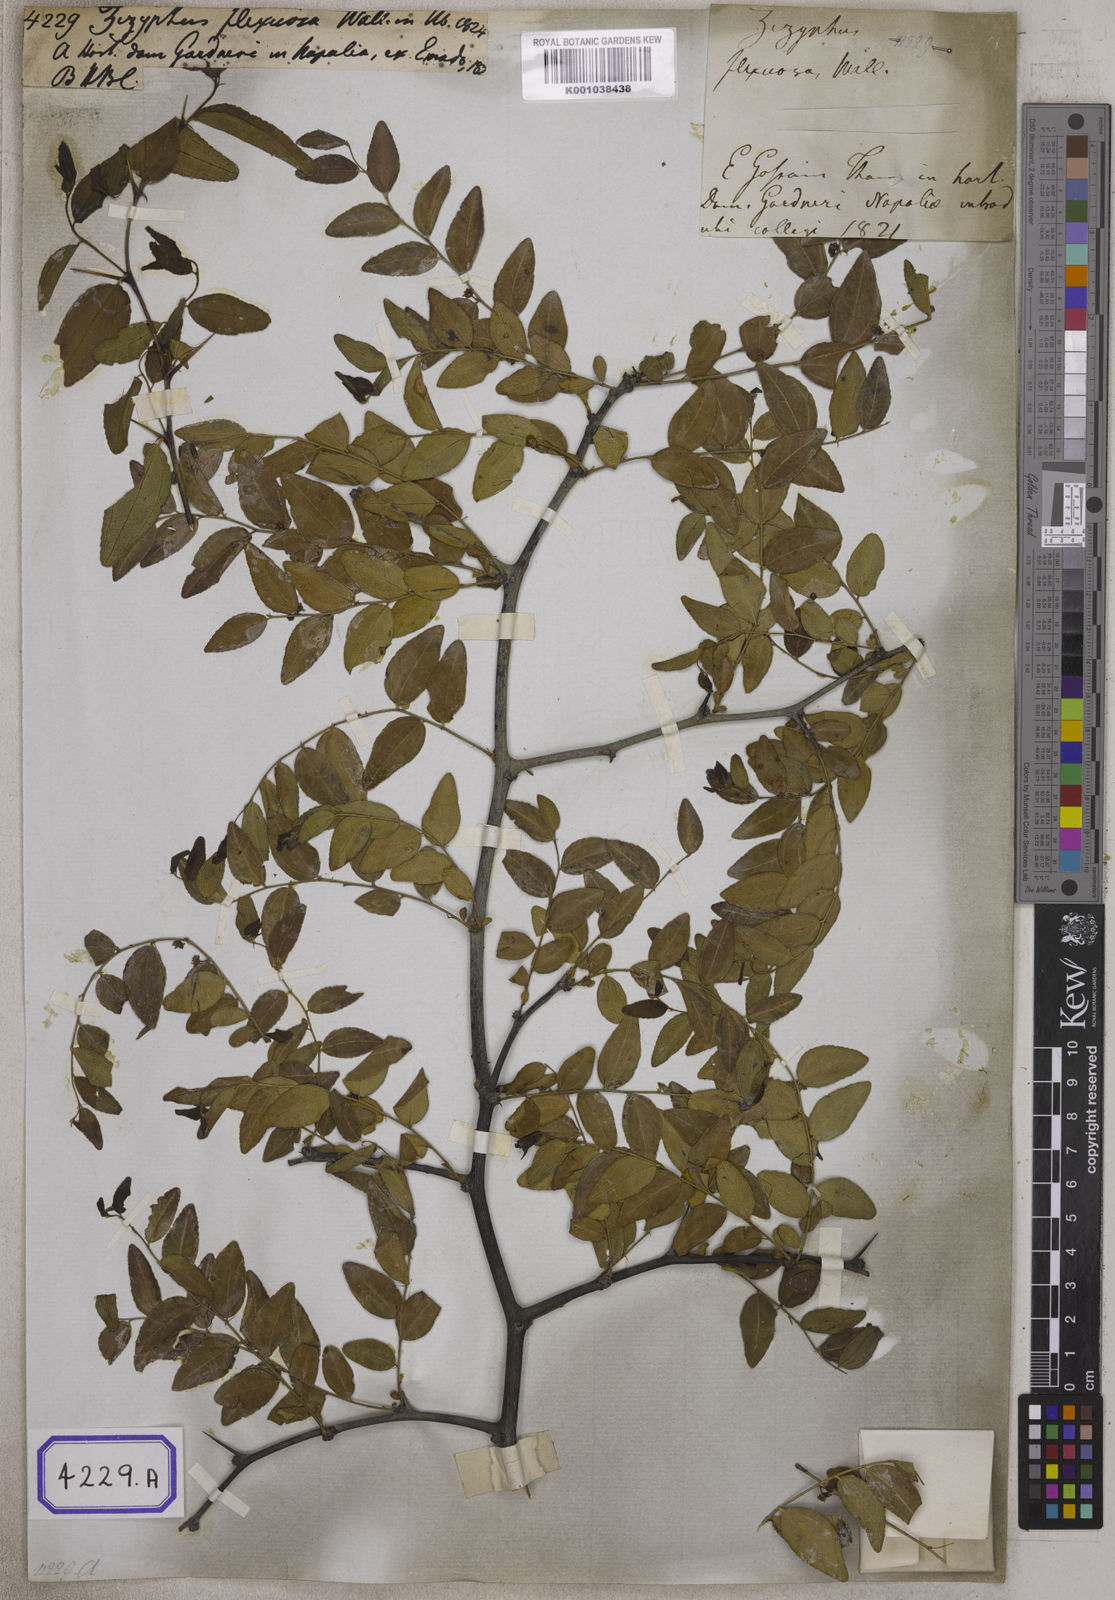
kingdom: Plantae
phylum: Tracheophyta
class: Magnoliopsida
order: Rosales
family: Rhamnaceae
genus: Ziziphus
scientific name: Ziziphus jujuba
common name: Jujube red date
